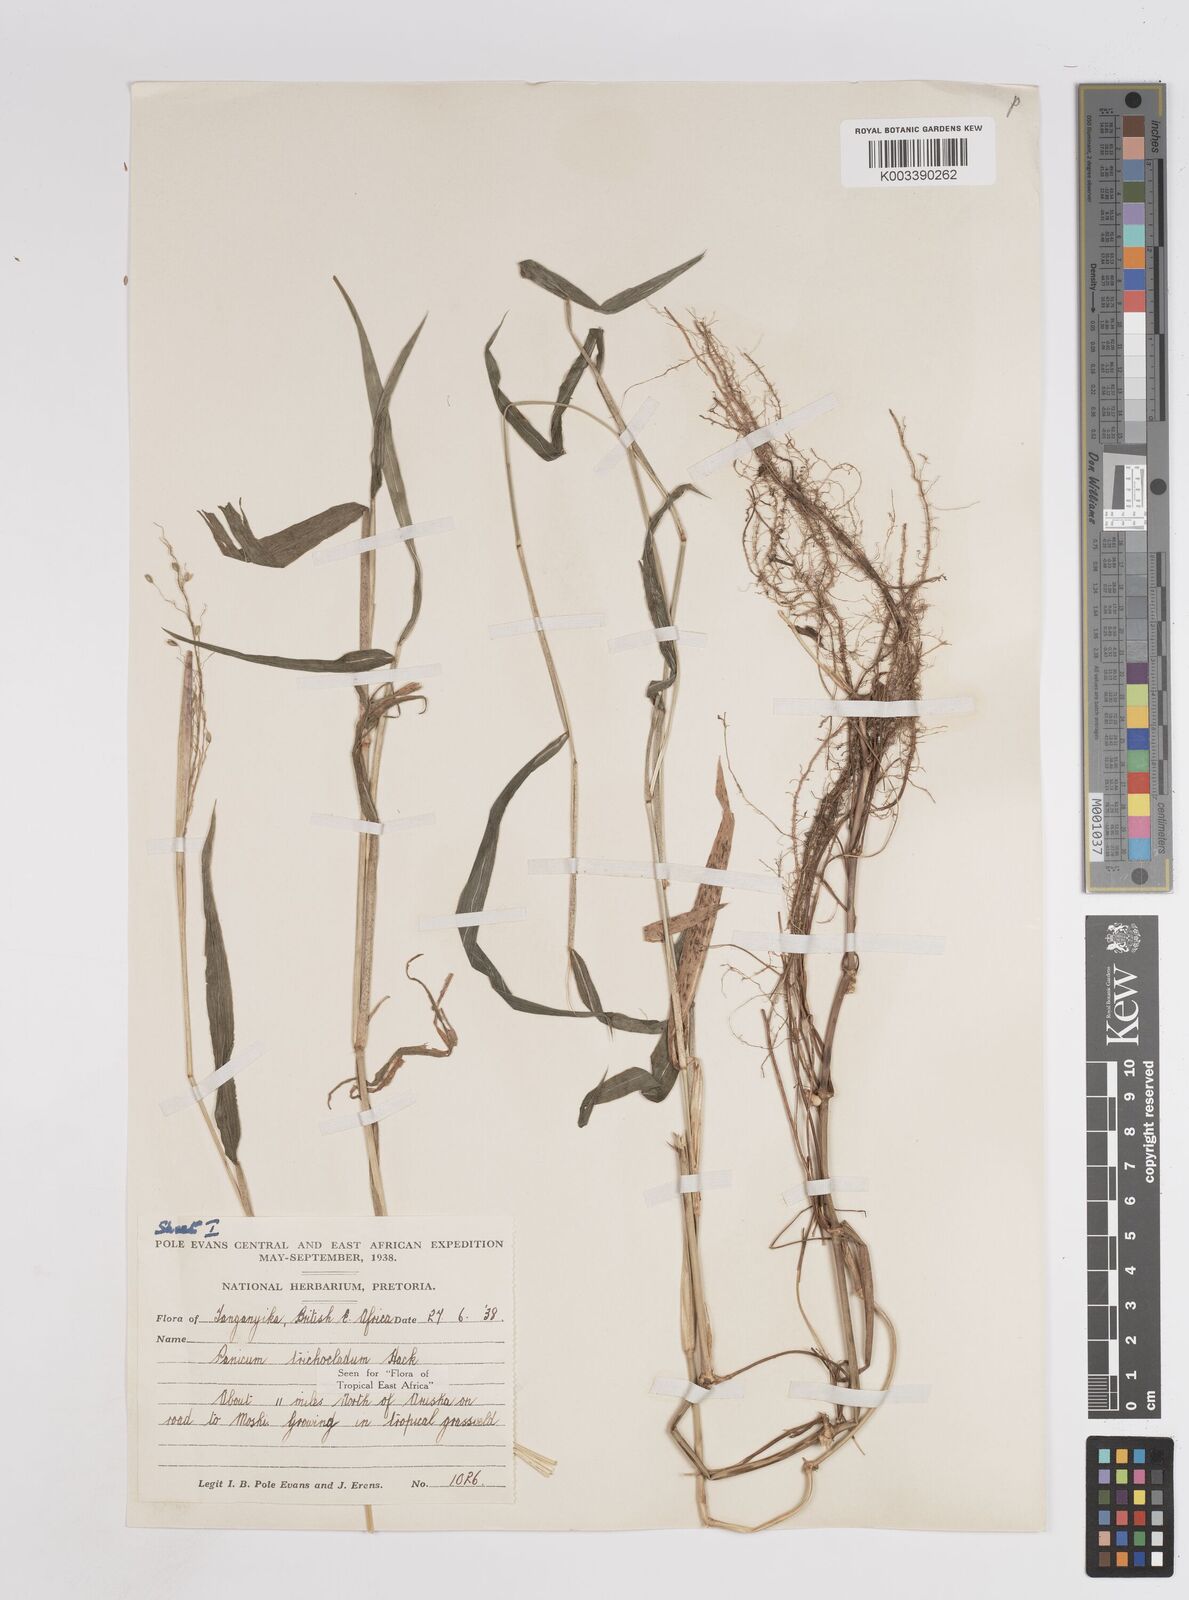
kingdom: Plantae
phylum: Tracheophyta
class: Liliopsida
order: Poales
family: Poaceae
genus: Panicum
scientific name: Panicum trichocladum
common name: Donkey grass
